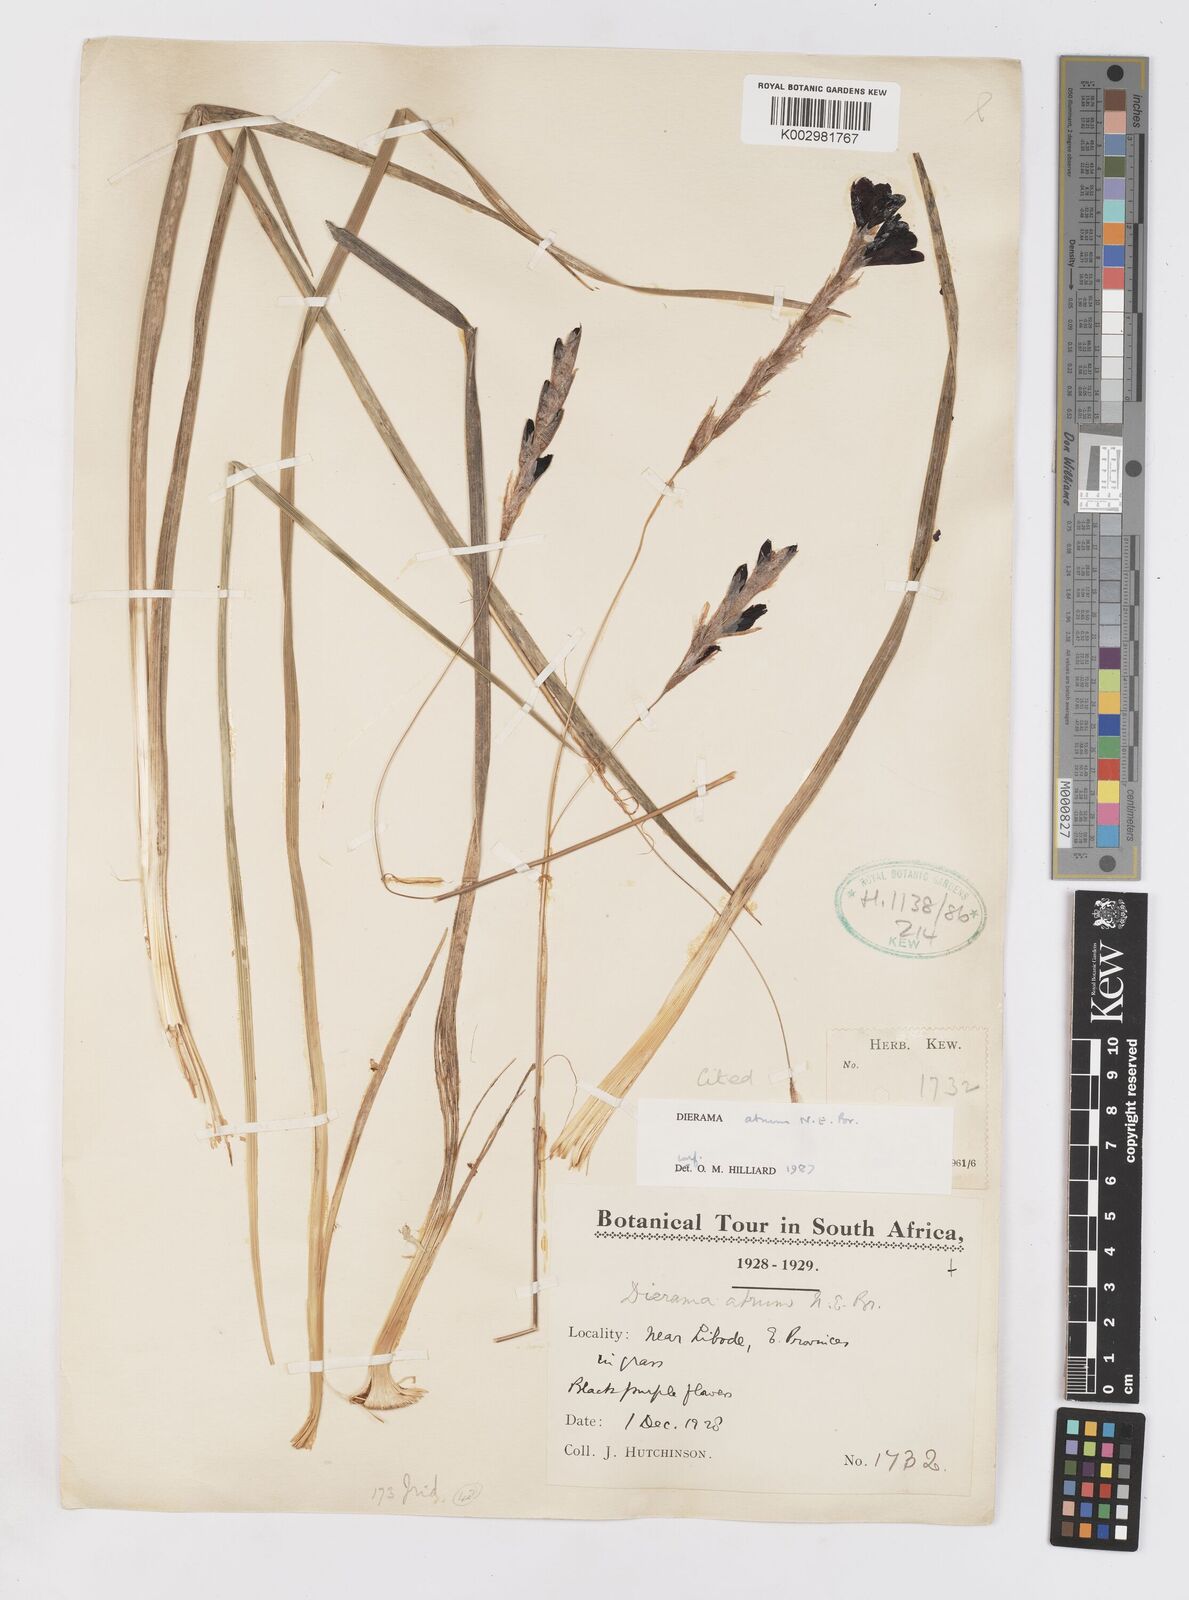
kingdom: Plantae
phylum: Tracheophyta
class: Liliopsida
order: Asparagales
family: Iridaceae
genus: Dierama
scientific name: Dierama atrum
